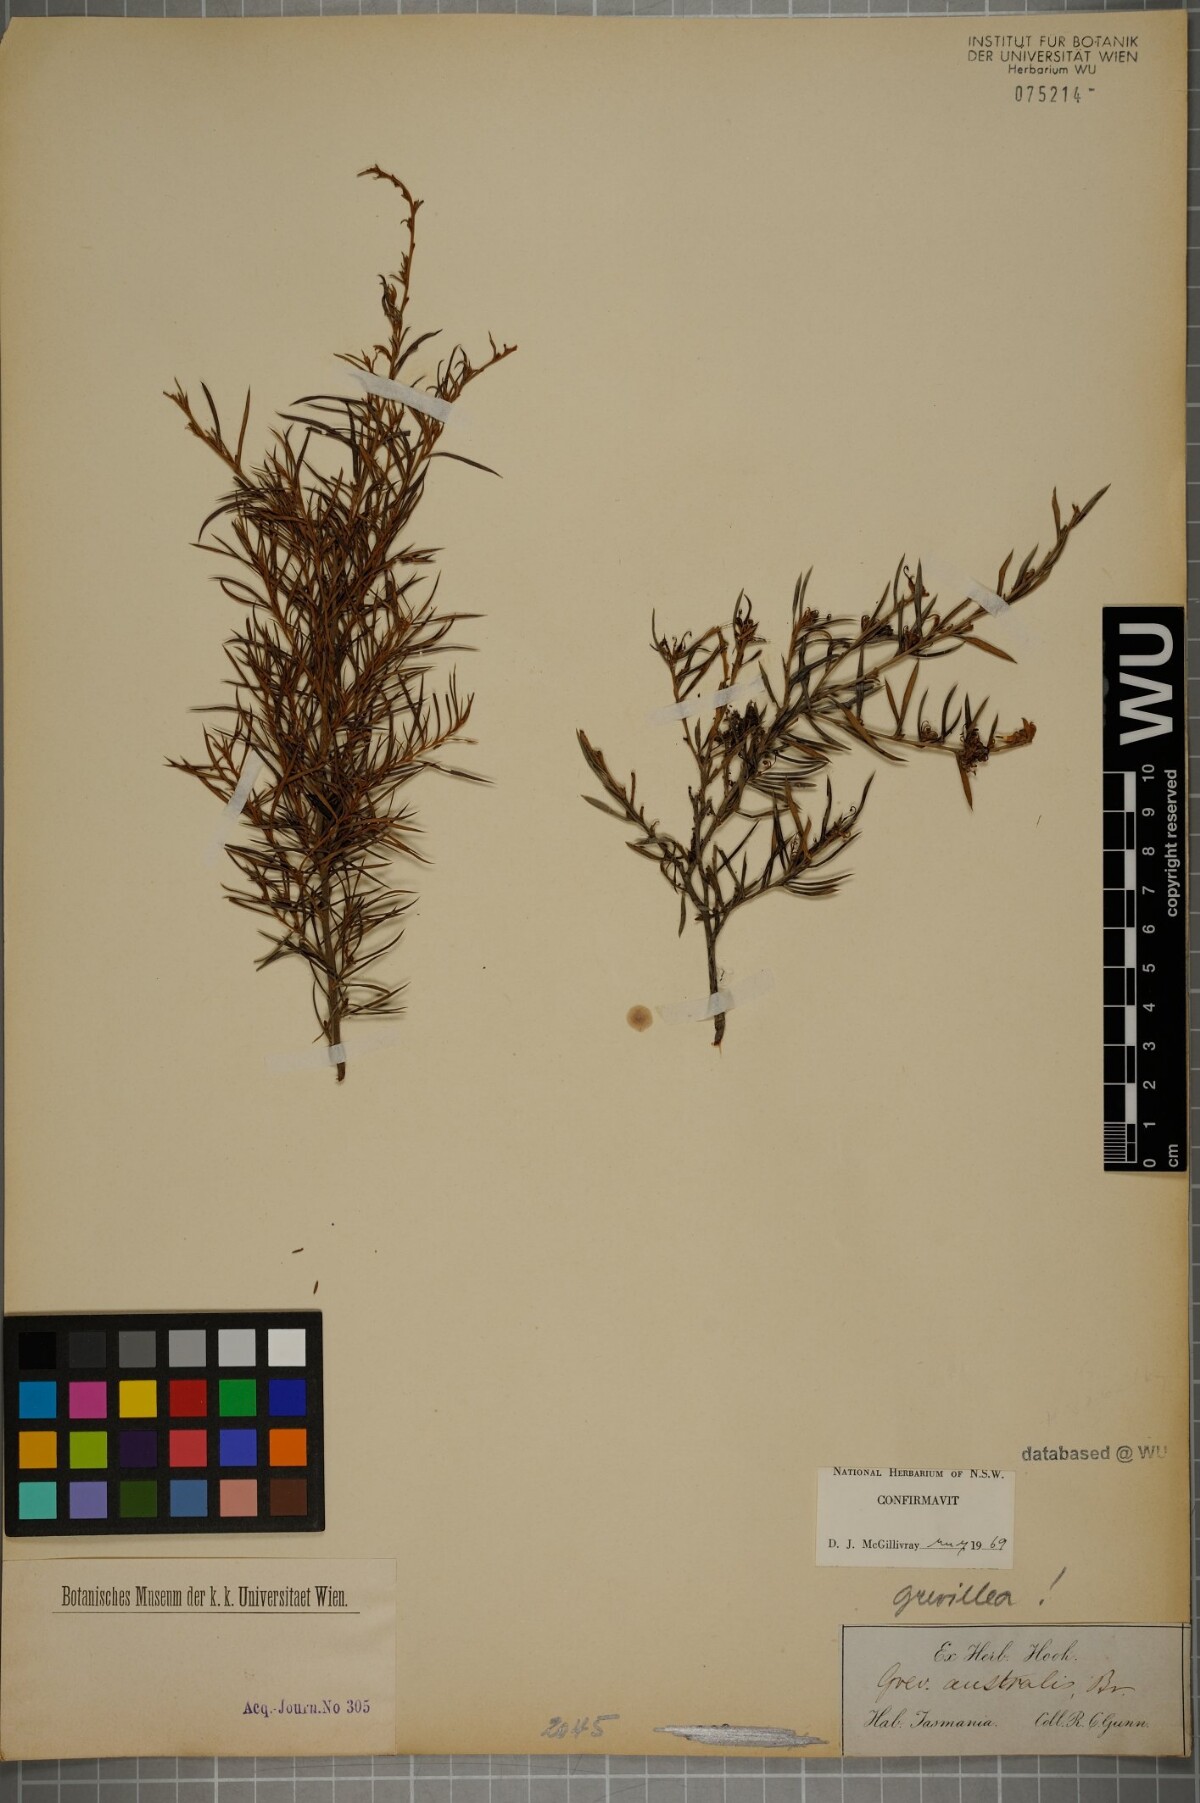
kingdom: Plantae
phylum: Tracheophyta
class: Magnoliopsida
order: Proteales
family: Proteaceae
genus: Grevillea
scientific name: Grevillea australis
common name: Alpine grevillea
